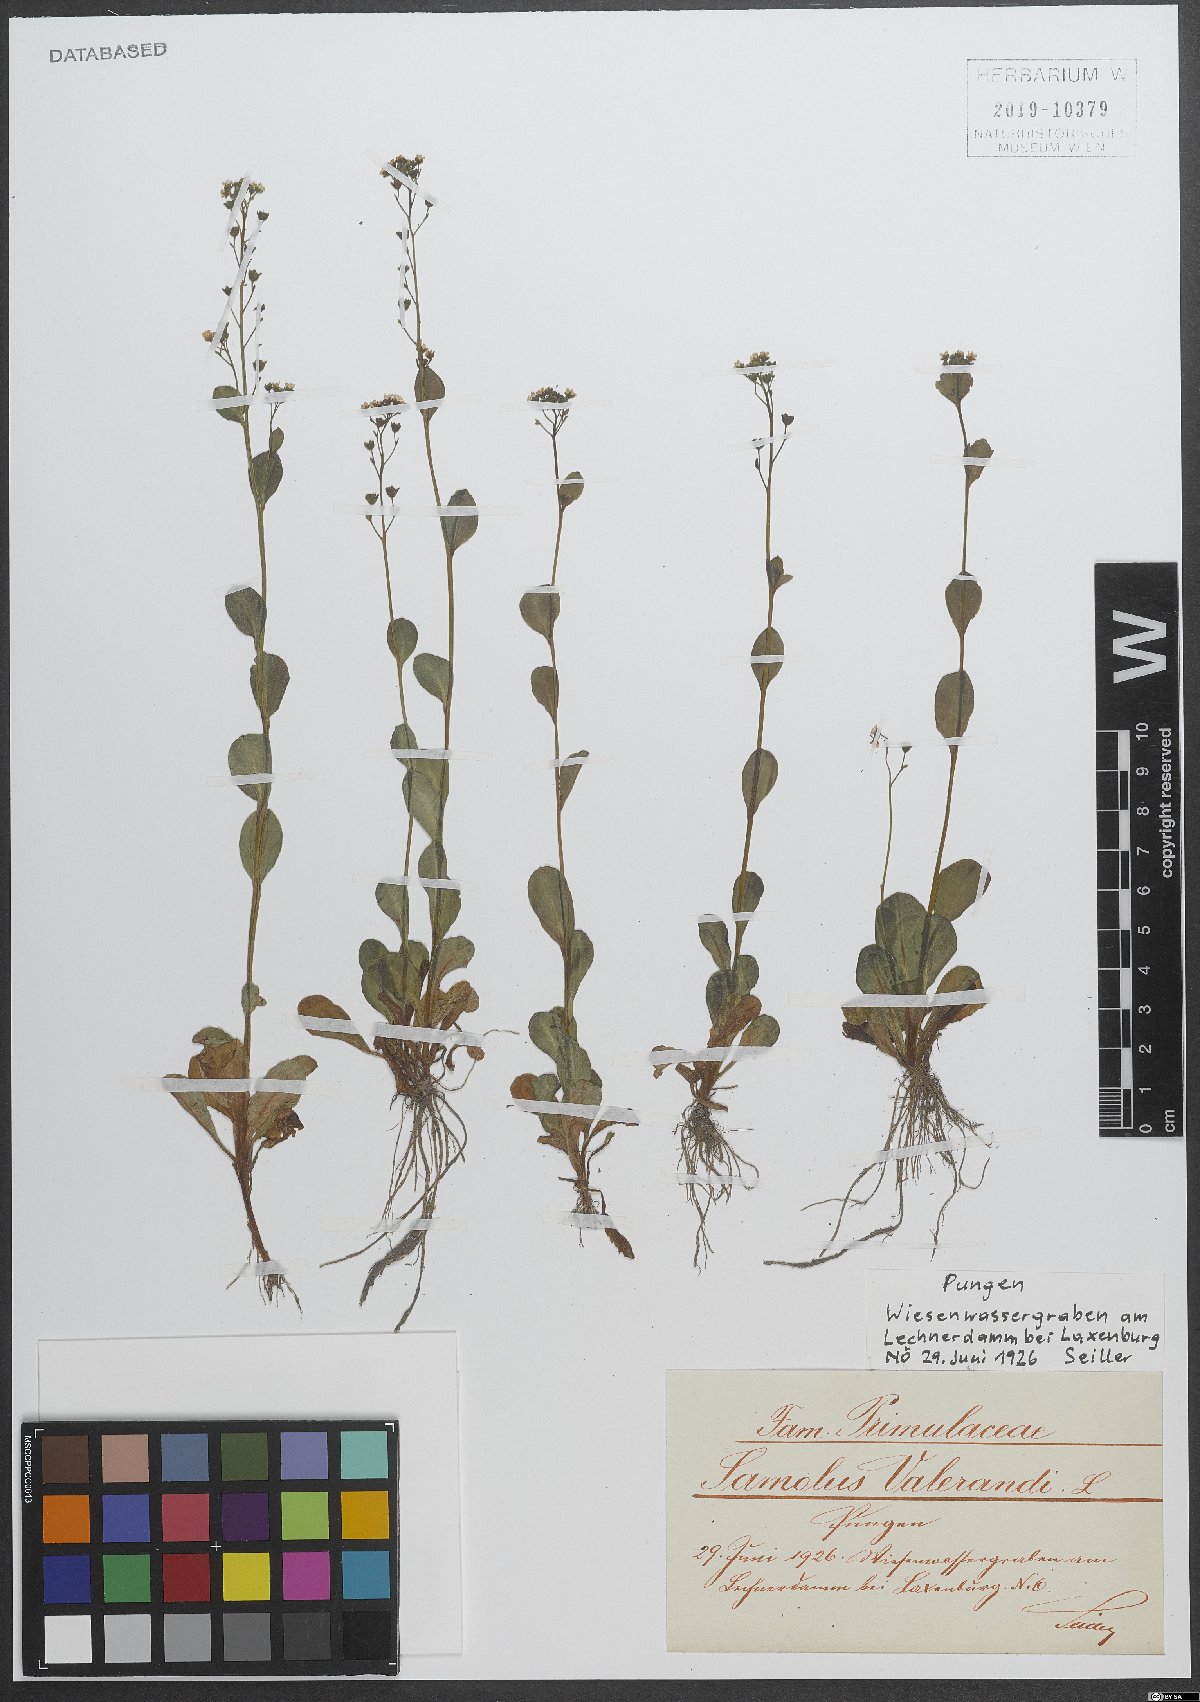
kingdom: Plantae
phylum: Tracheophyta
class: Magnoliopsida
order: Ericales
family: Primulaceae
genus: Samolus
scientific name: Samolus valerandi
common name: Brookweed
